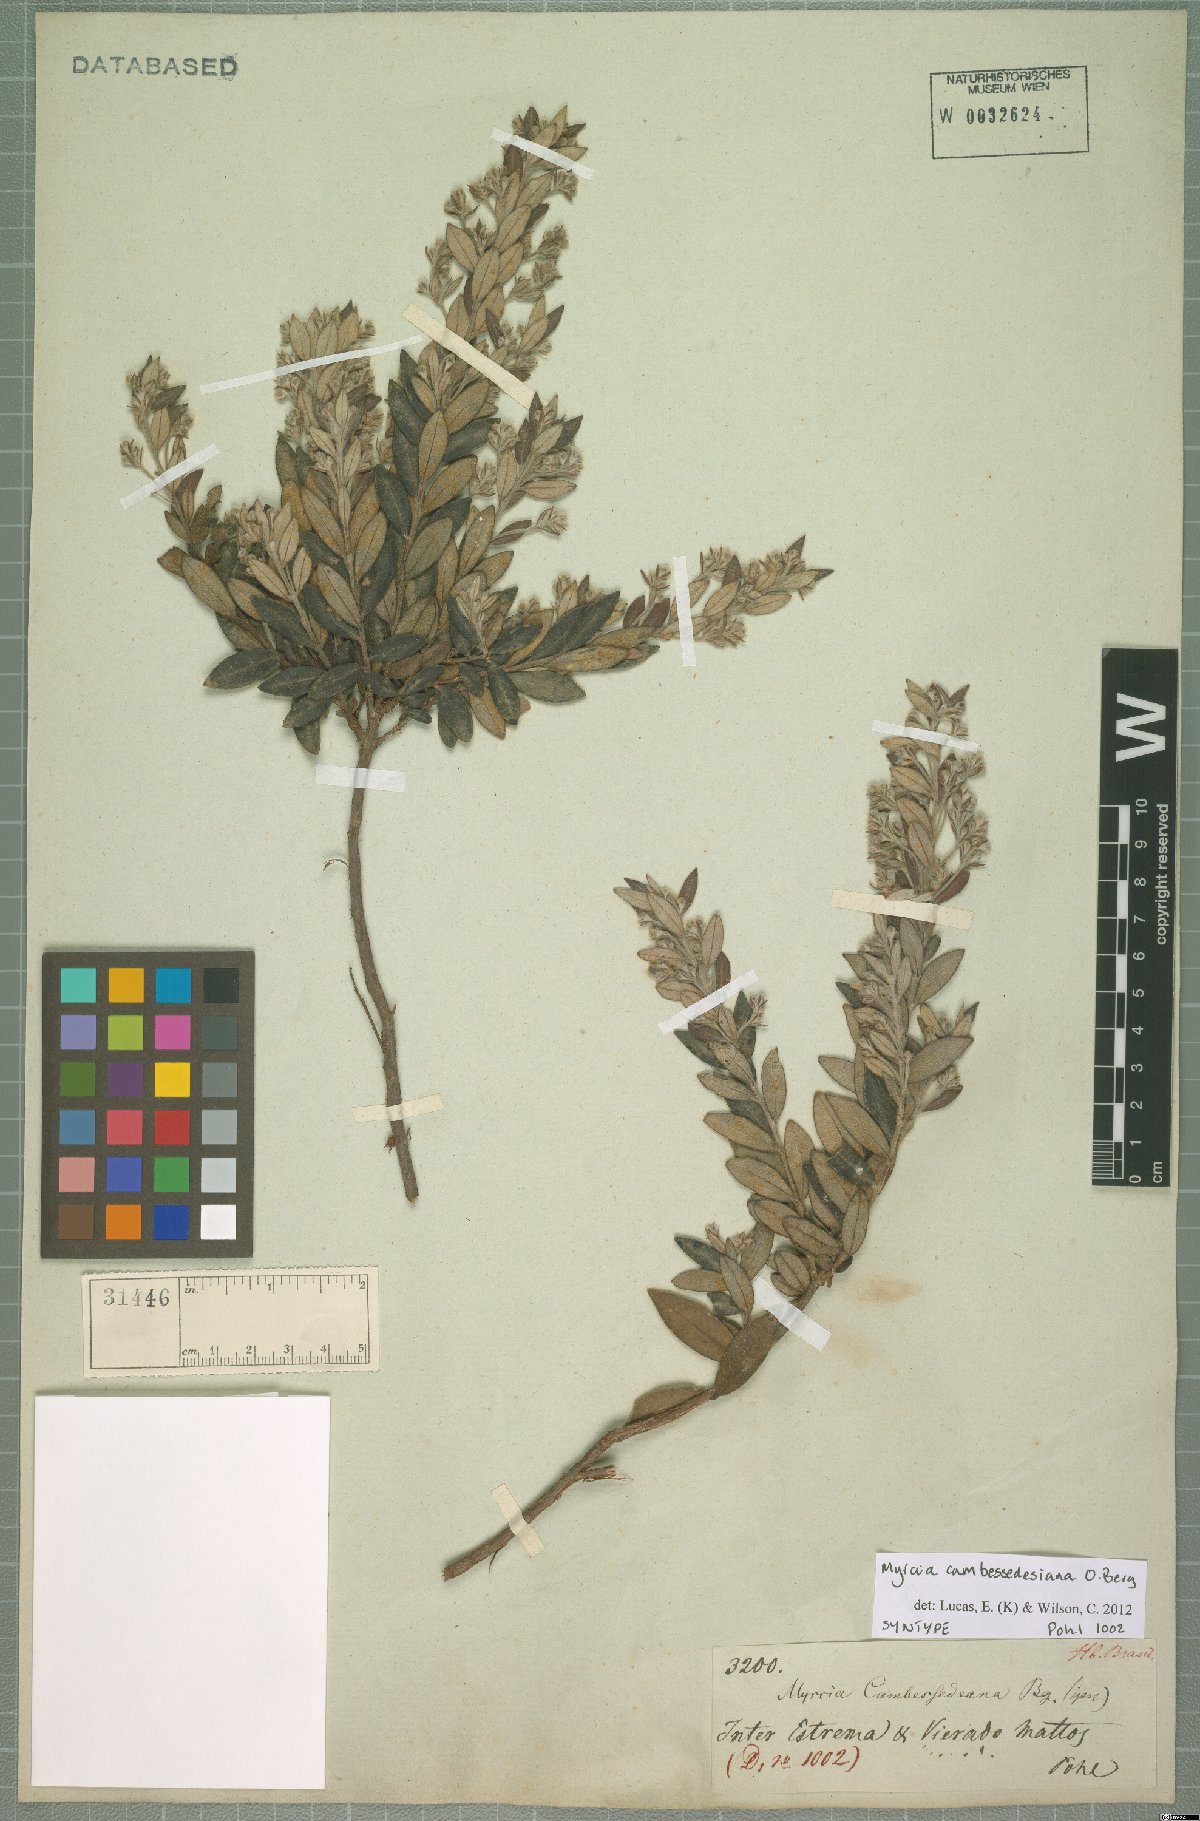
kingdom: Plantae
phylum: Tracheophyta
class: Magnoliopsida
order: Myrtales
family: Myrtaceae
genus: Myrcia
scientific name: Myrcia cambessedesiana
